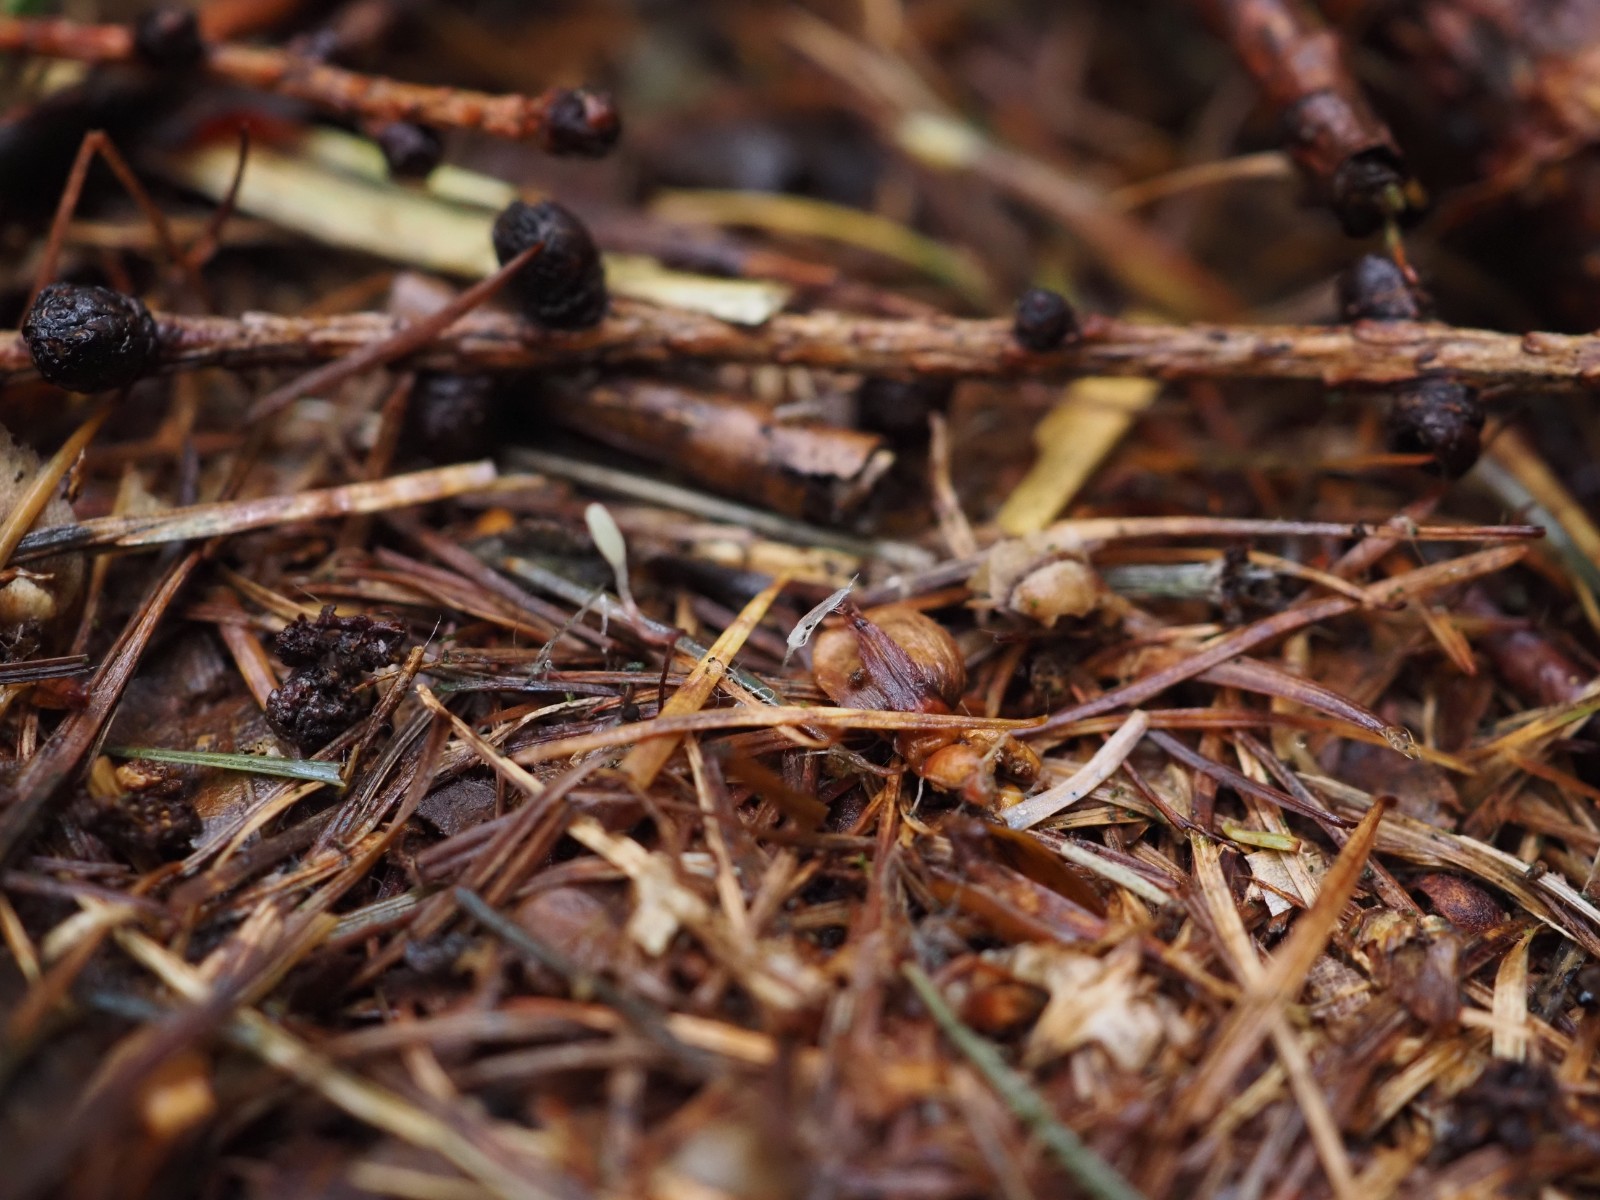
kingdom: Fungi
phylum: Basidiomycota
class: Agaricomycetes
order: Agaricales
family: Typhulaceae
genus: Typhula
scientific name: Typhula erythropus
